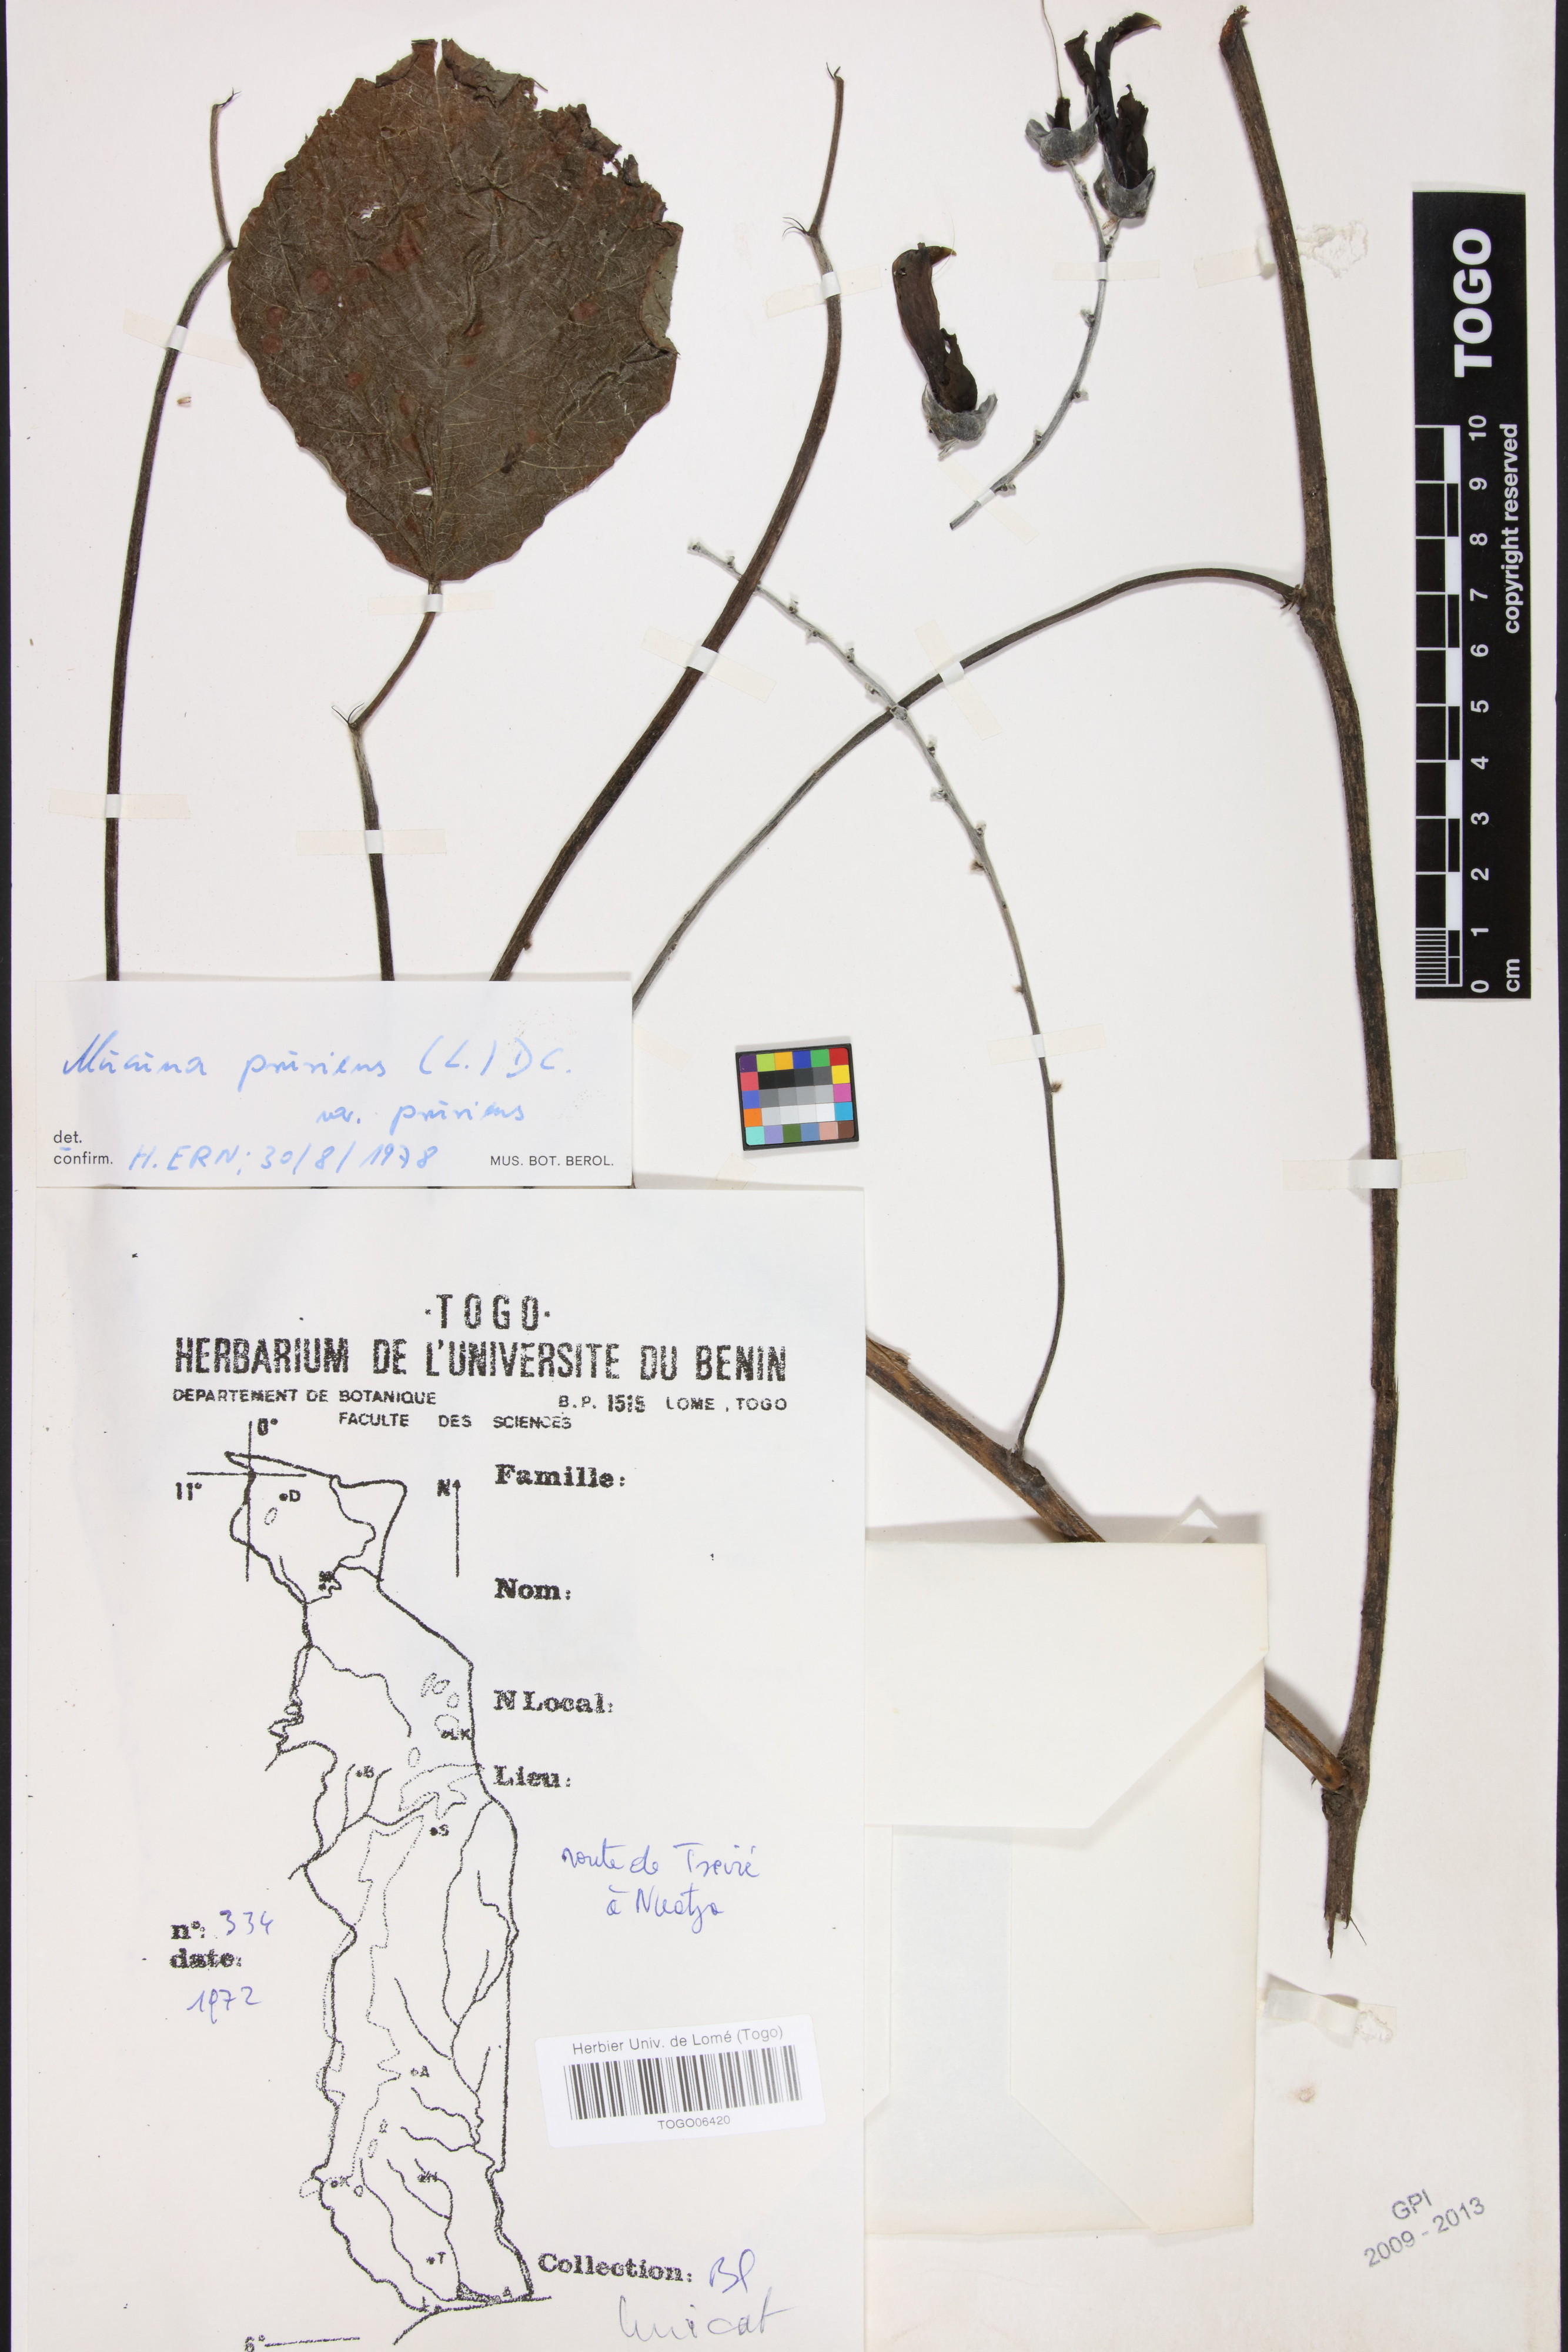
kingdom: Plantae
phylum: Tracheophyta
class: Magnoliopsida
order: Fabales
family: Fabaceae
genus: Mucuna
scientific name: Mucuna pruriens
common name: Cow-itch
